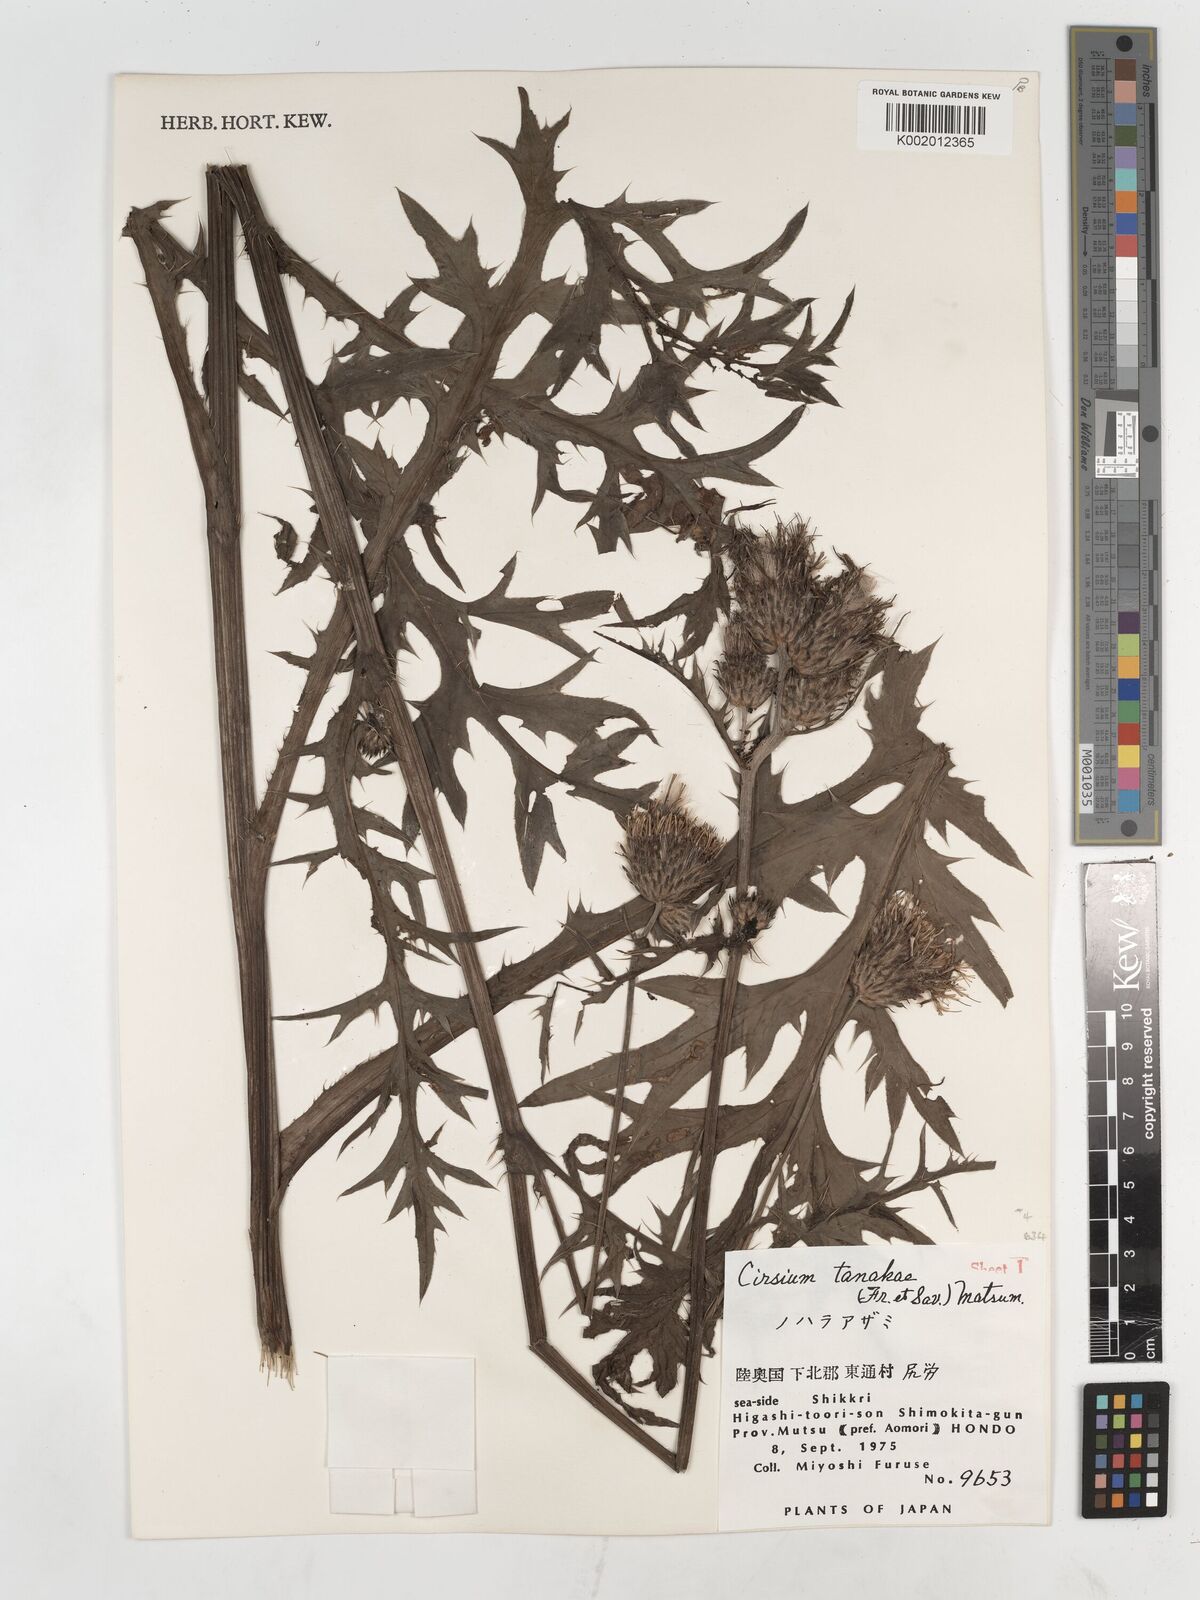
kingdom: Plantae
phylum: Tracheophyta
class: Magnoliopsida
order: Asterales
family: Asteraceae
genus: Cirsium
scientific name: Cirsium nipponicum
